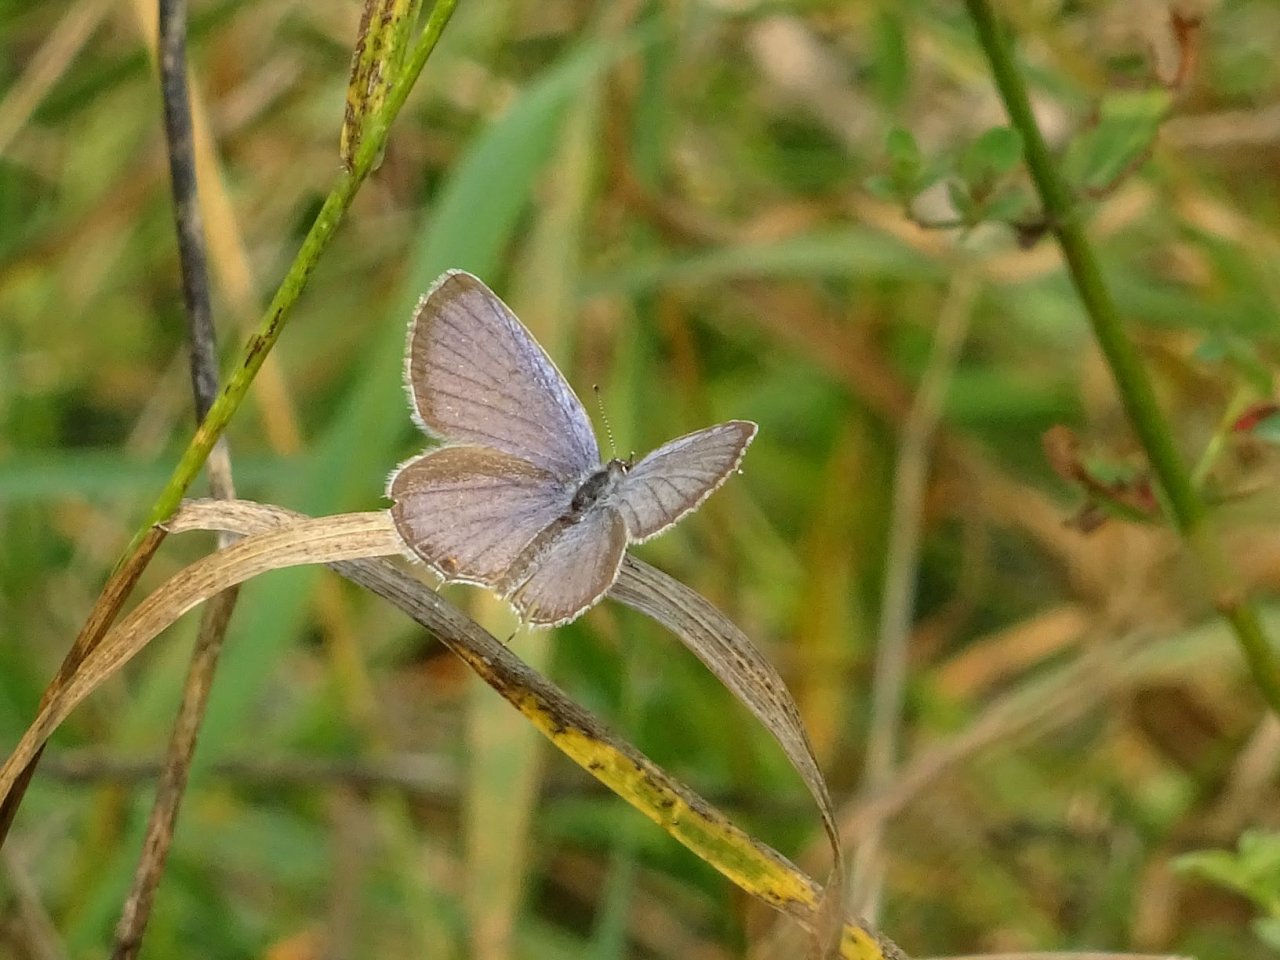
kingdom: Animalia
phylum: Arthropoda
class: Insecta
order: Lepidoptera
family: Lycaenidae
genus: Elkalyce
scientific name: Elkalyce comyntas
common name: Eastern Tailed-Blue
